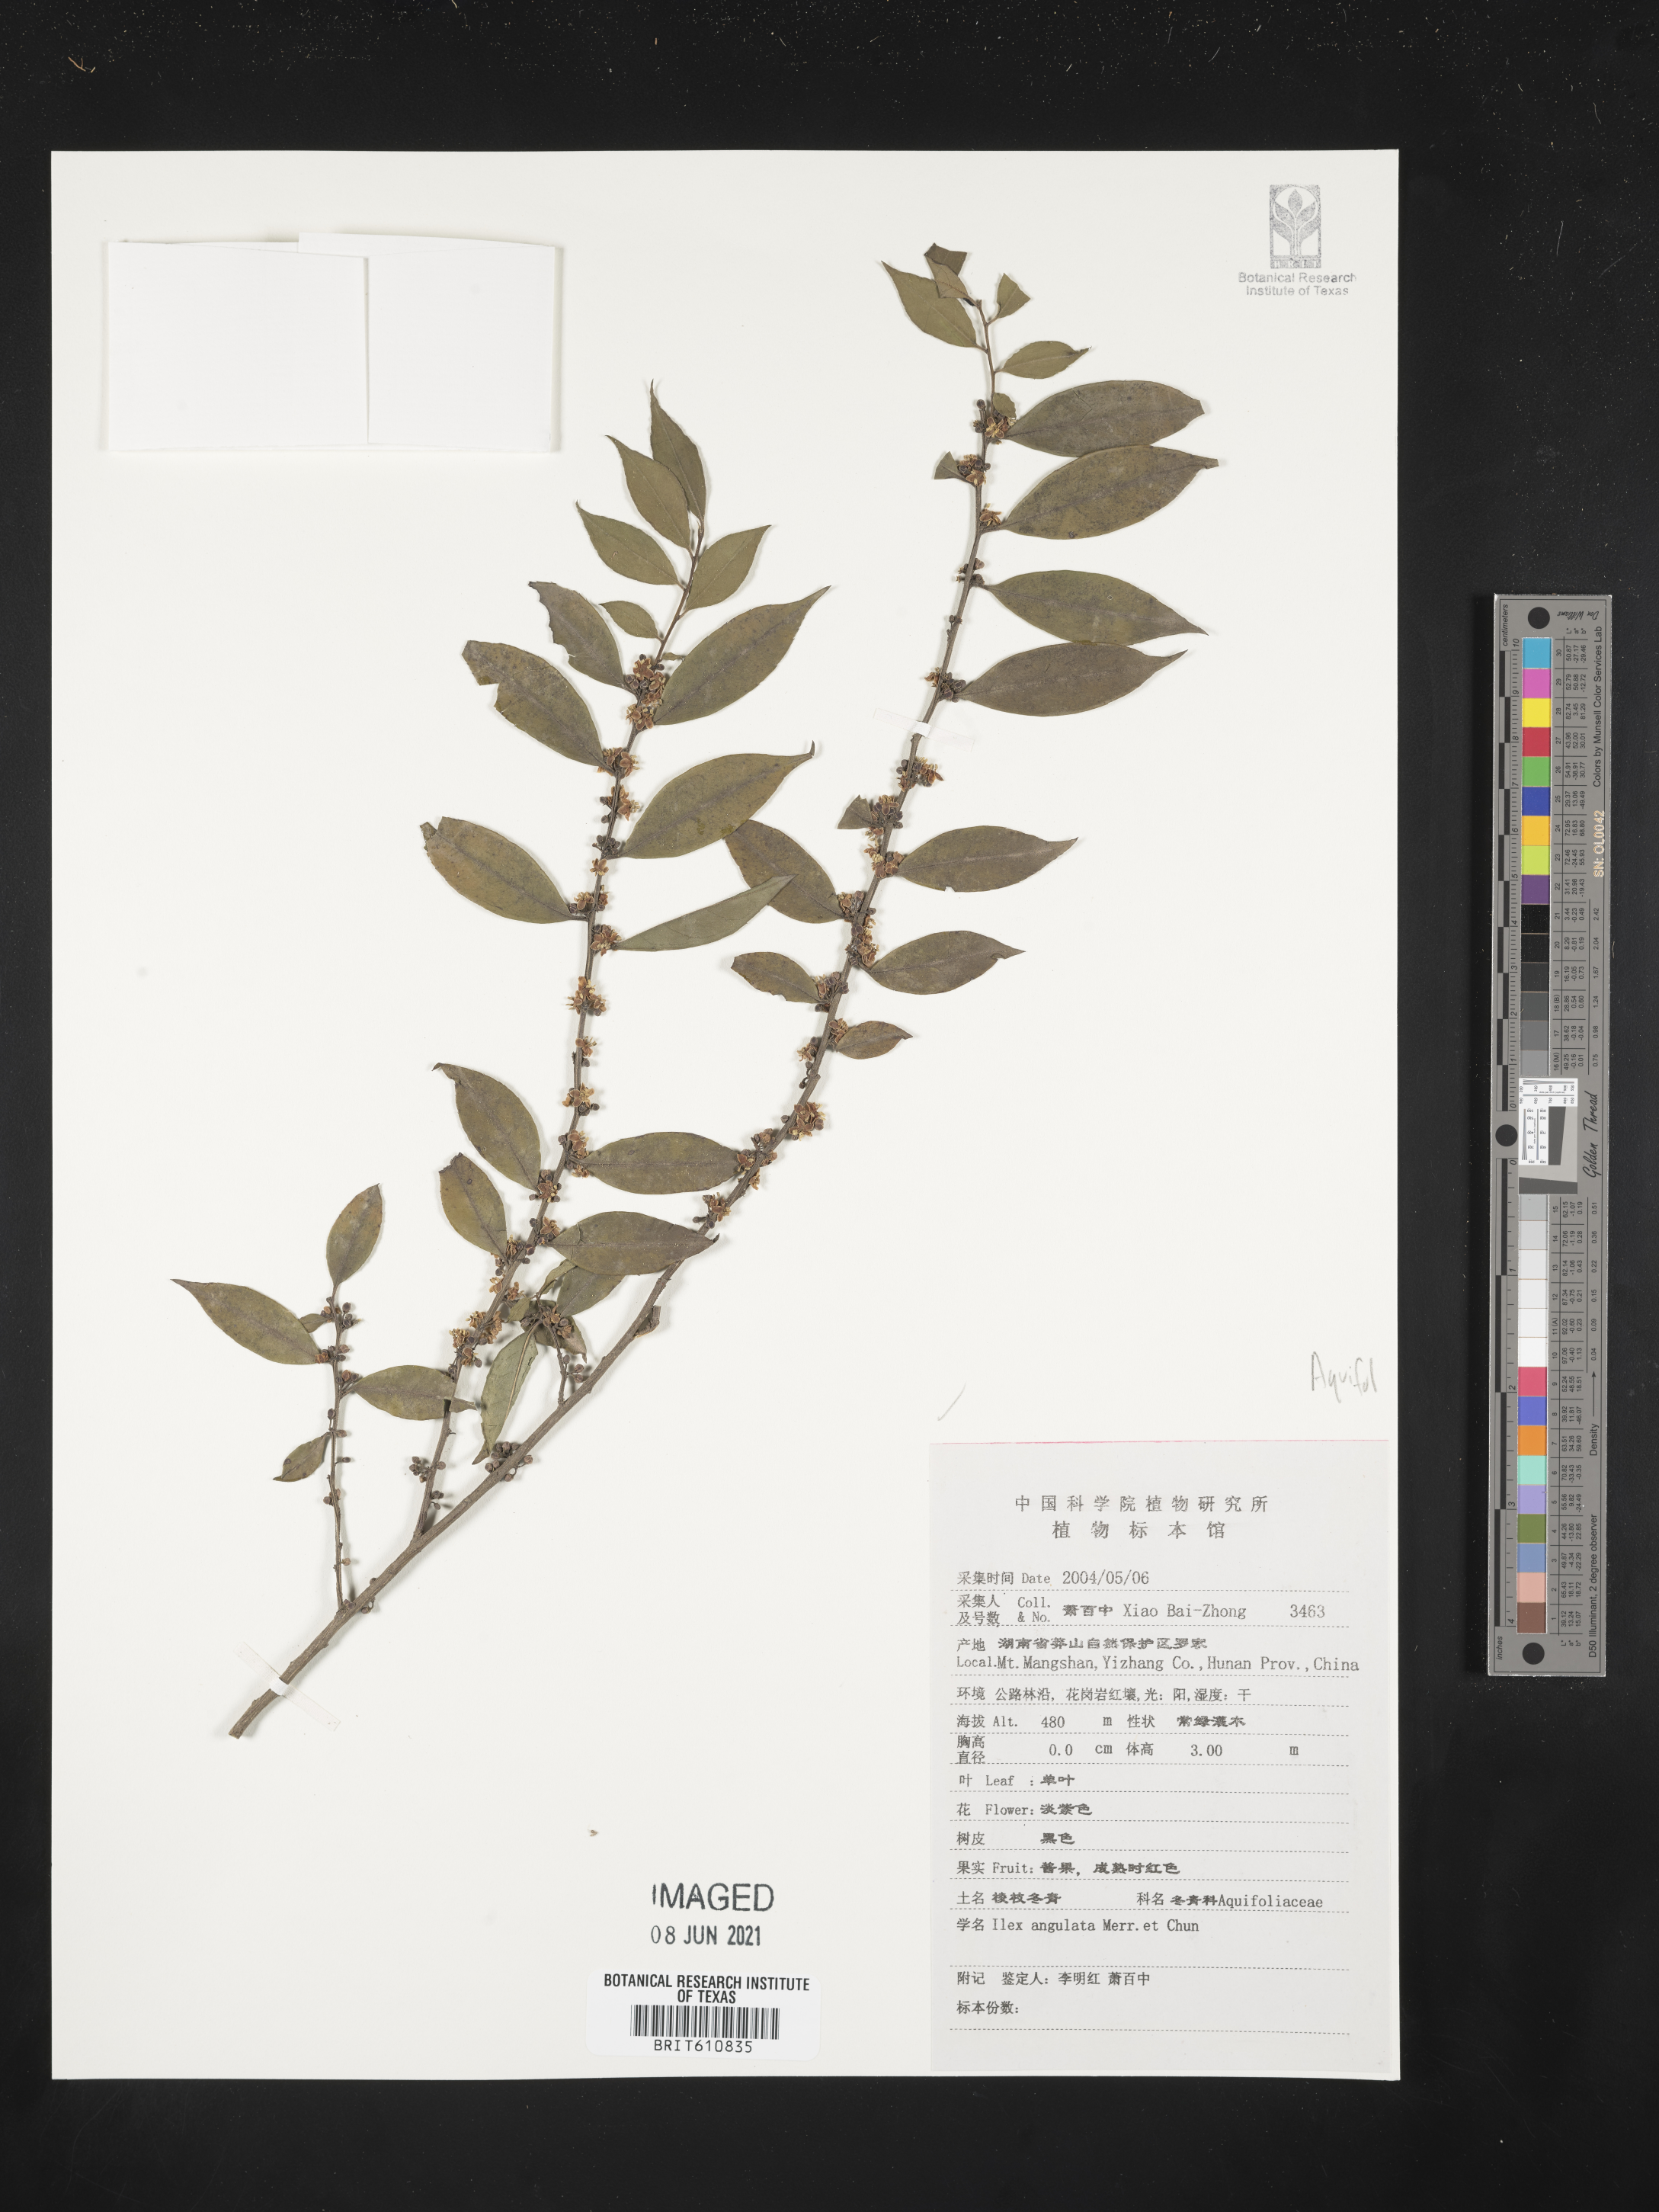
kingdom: Plantae
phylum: Tracheophyta
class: Magnoliopsida
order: Aquifoliales
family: Aquifoliaceae
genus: Ilex
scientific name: Ilex angulata
